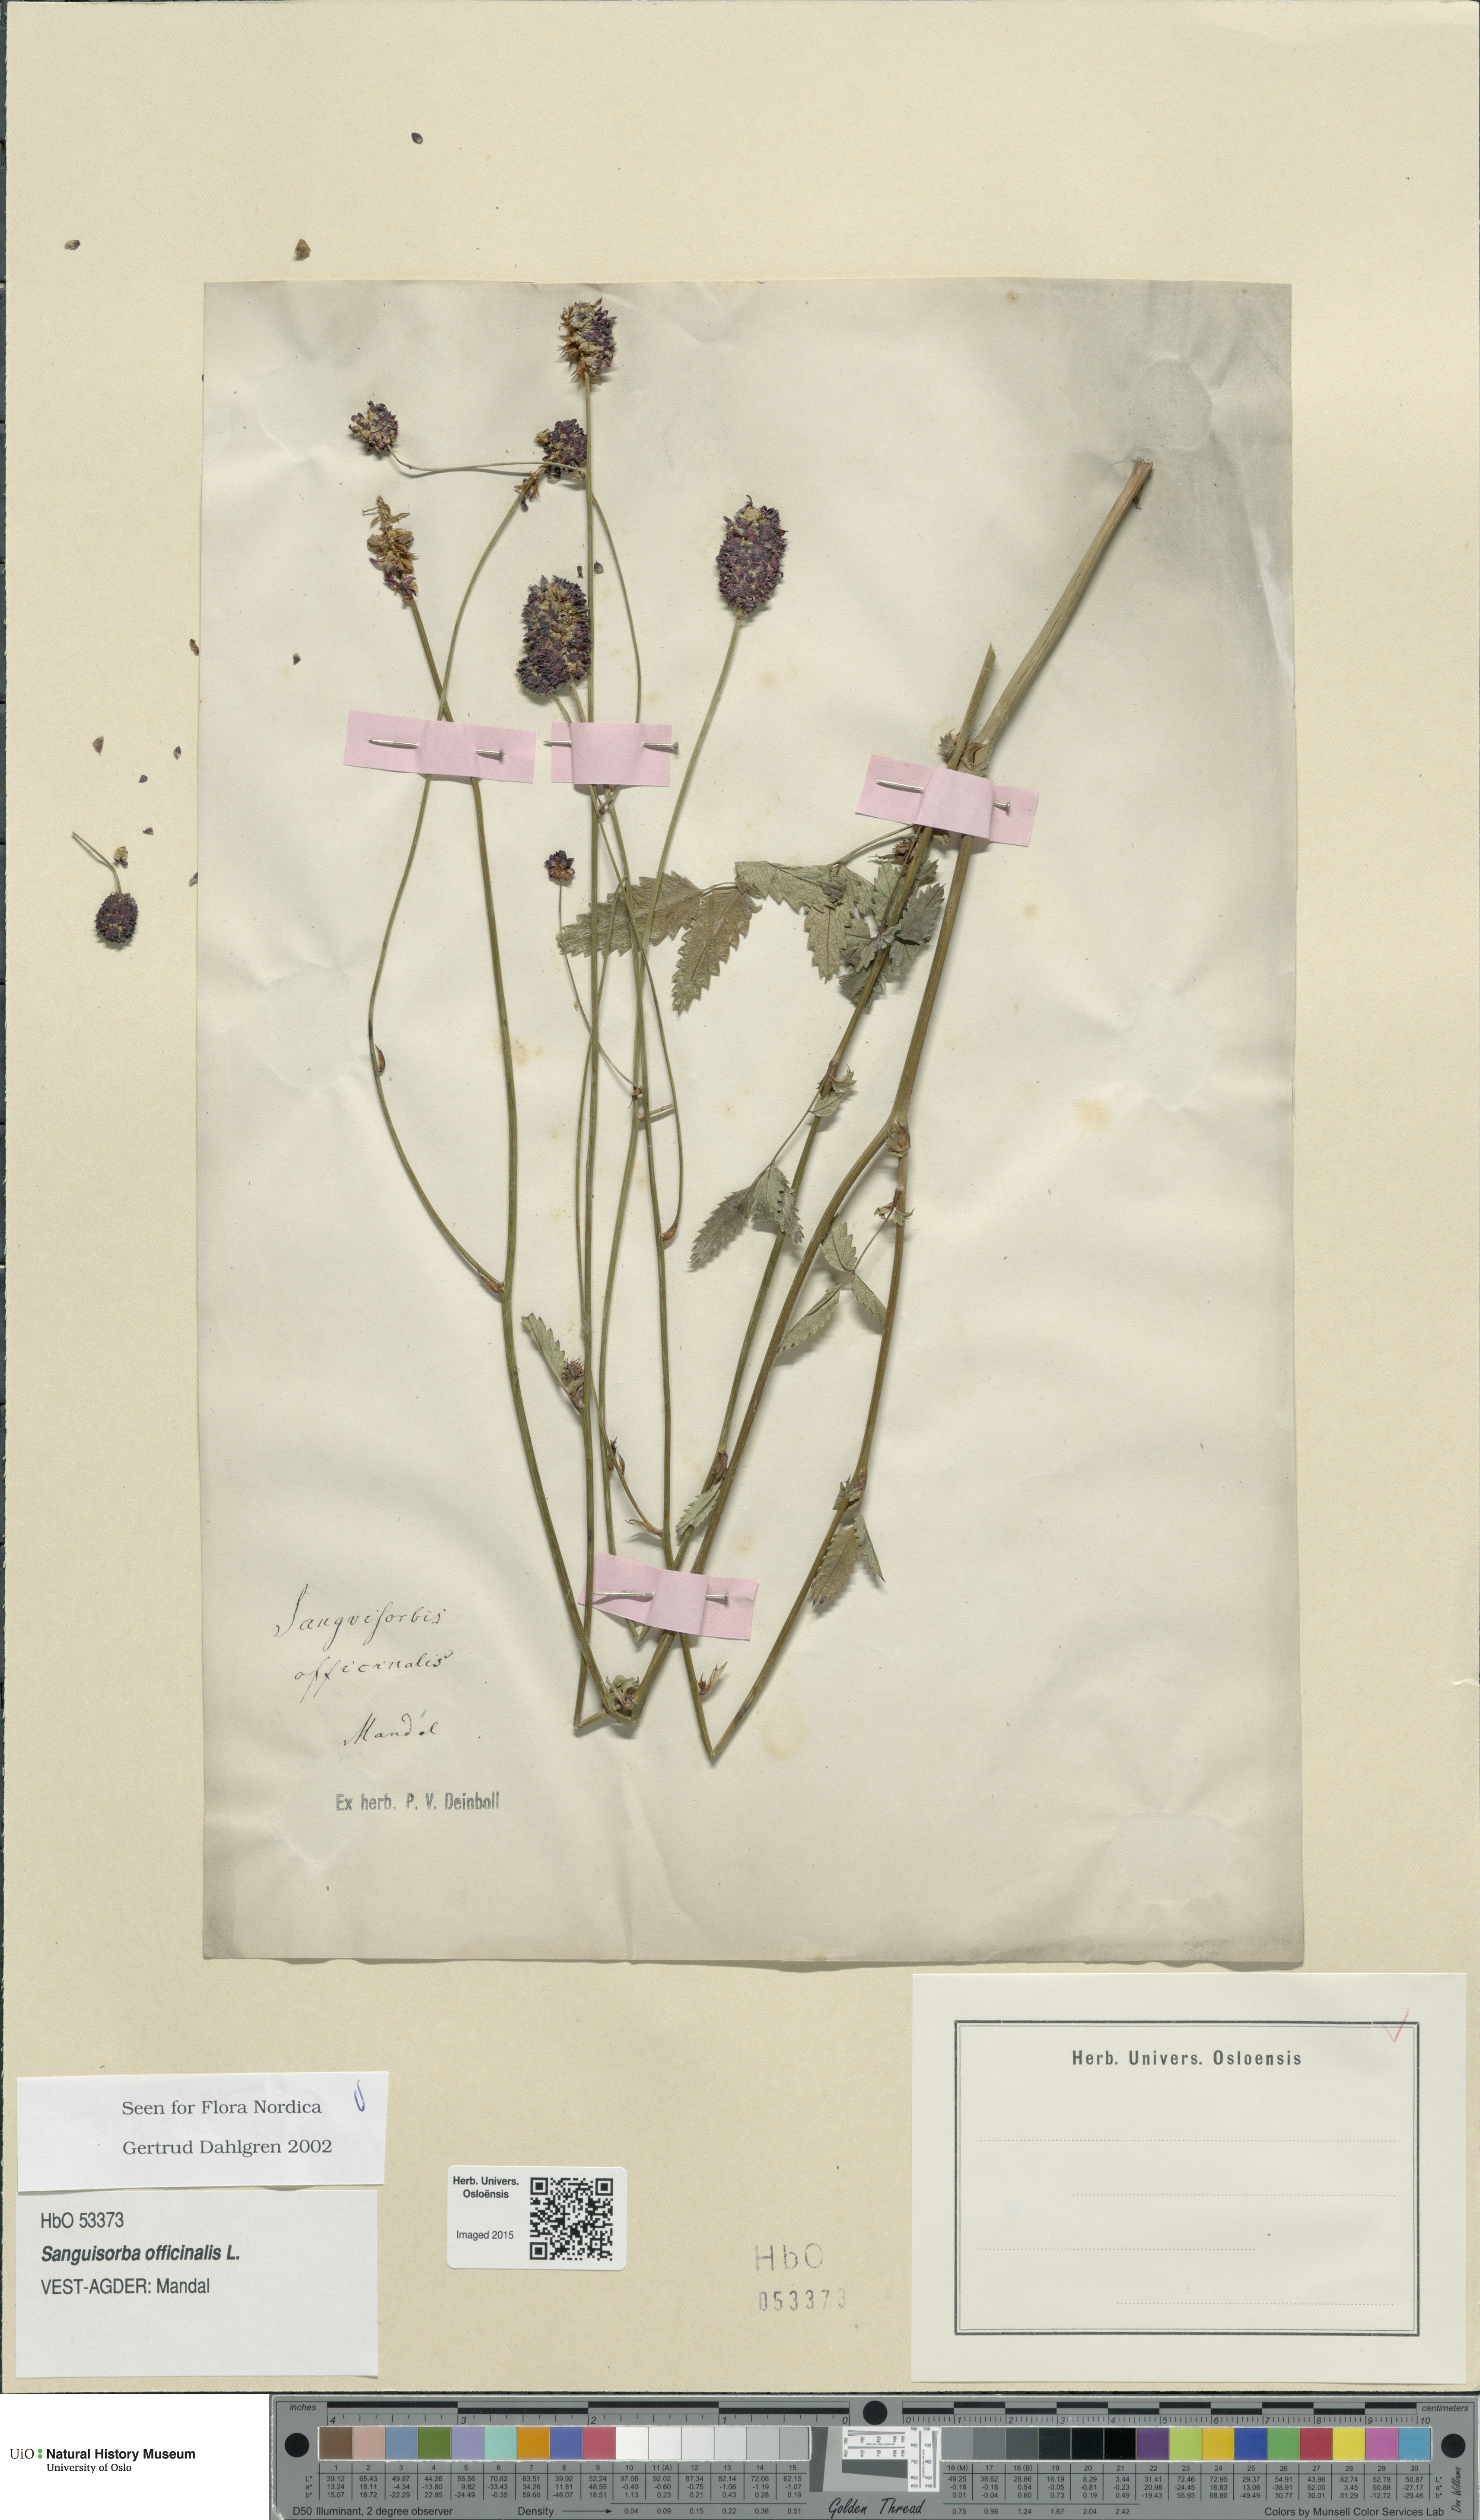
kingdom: Plantae
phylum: Tracheophyta
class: Magnoliopsida
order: Rosales
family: Rosaceae
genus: Sanguisorba
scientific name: Sanguisorba officinalis
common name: Great burnet
